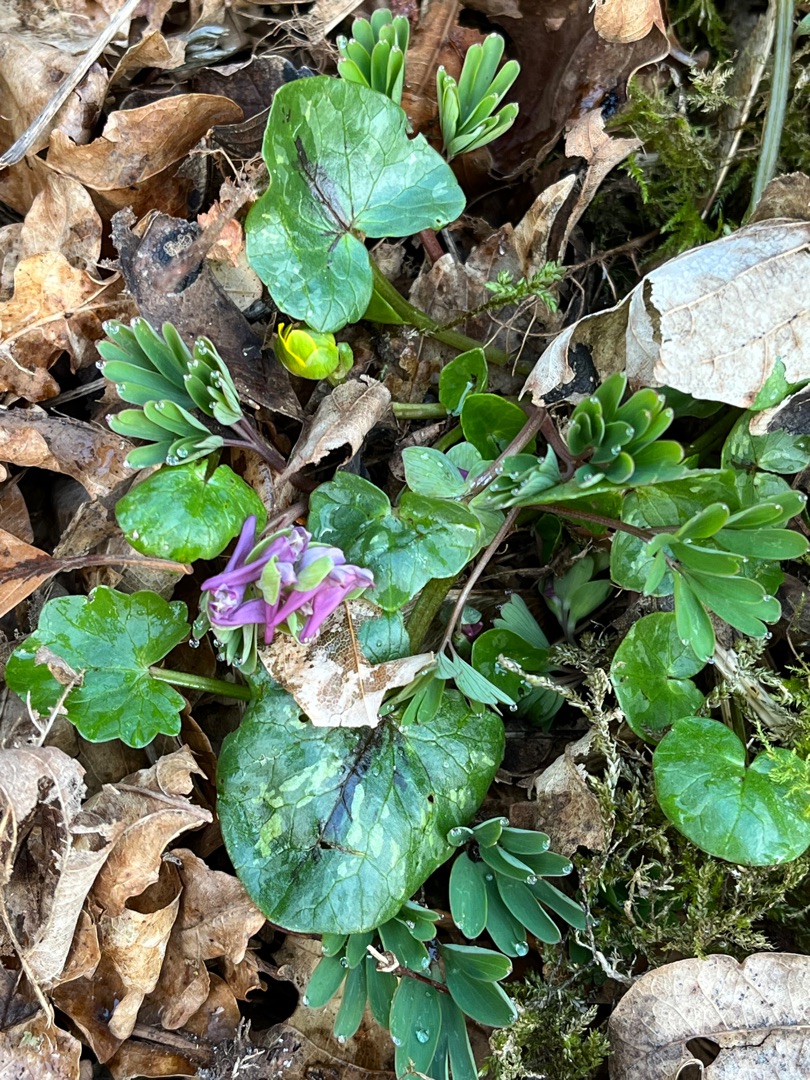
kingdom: Plantae
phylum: Tracheophyta
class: Magnoliopsida
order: Ranunculales
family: Papaveraceae
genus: Corydalis
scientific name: Corydalis cava
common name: Hulrodet lærkespore
